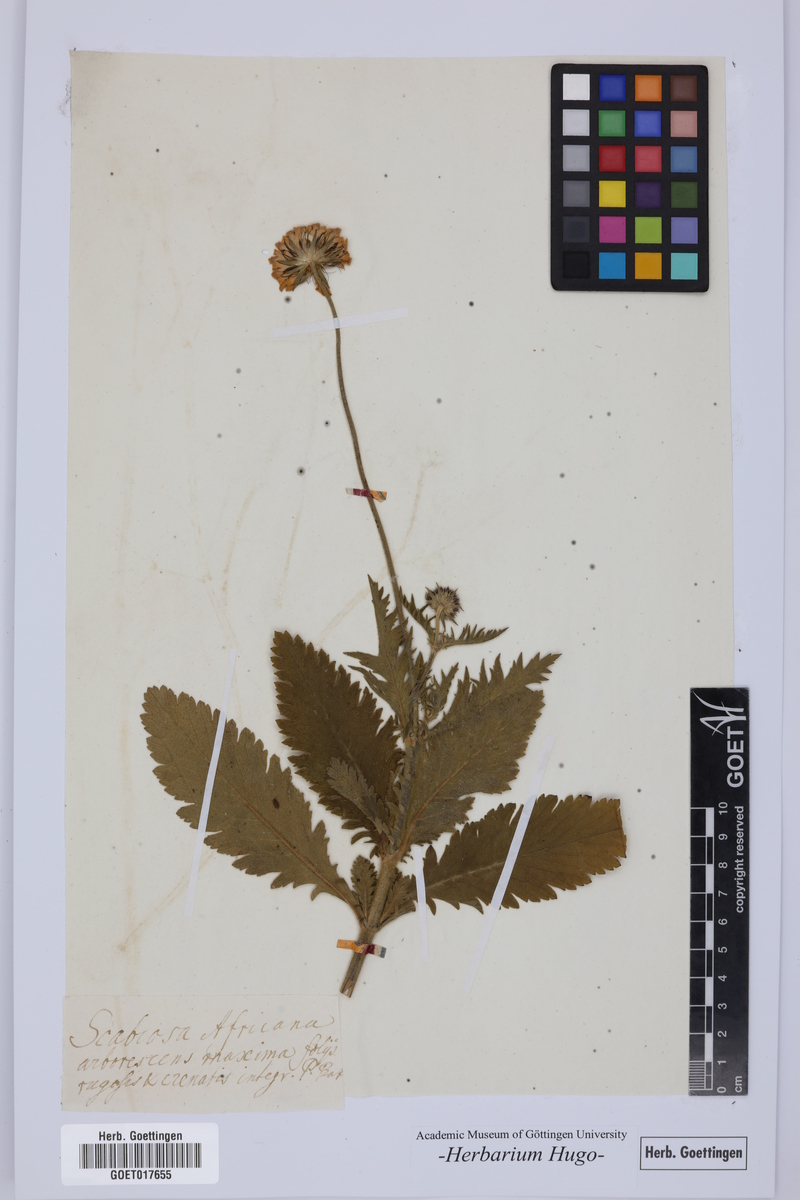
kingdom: Plantae
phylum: Tracheophyta
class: Magnoliopsida
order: Dipsacales
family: Caprifoliaceae
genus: Scabiosa
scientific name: Scabiosa africana
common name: Cape scabious
